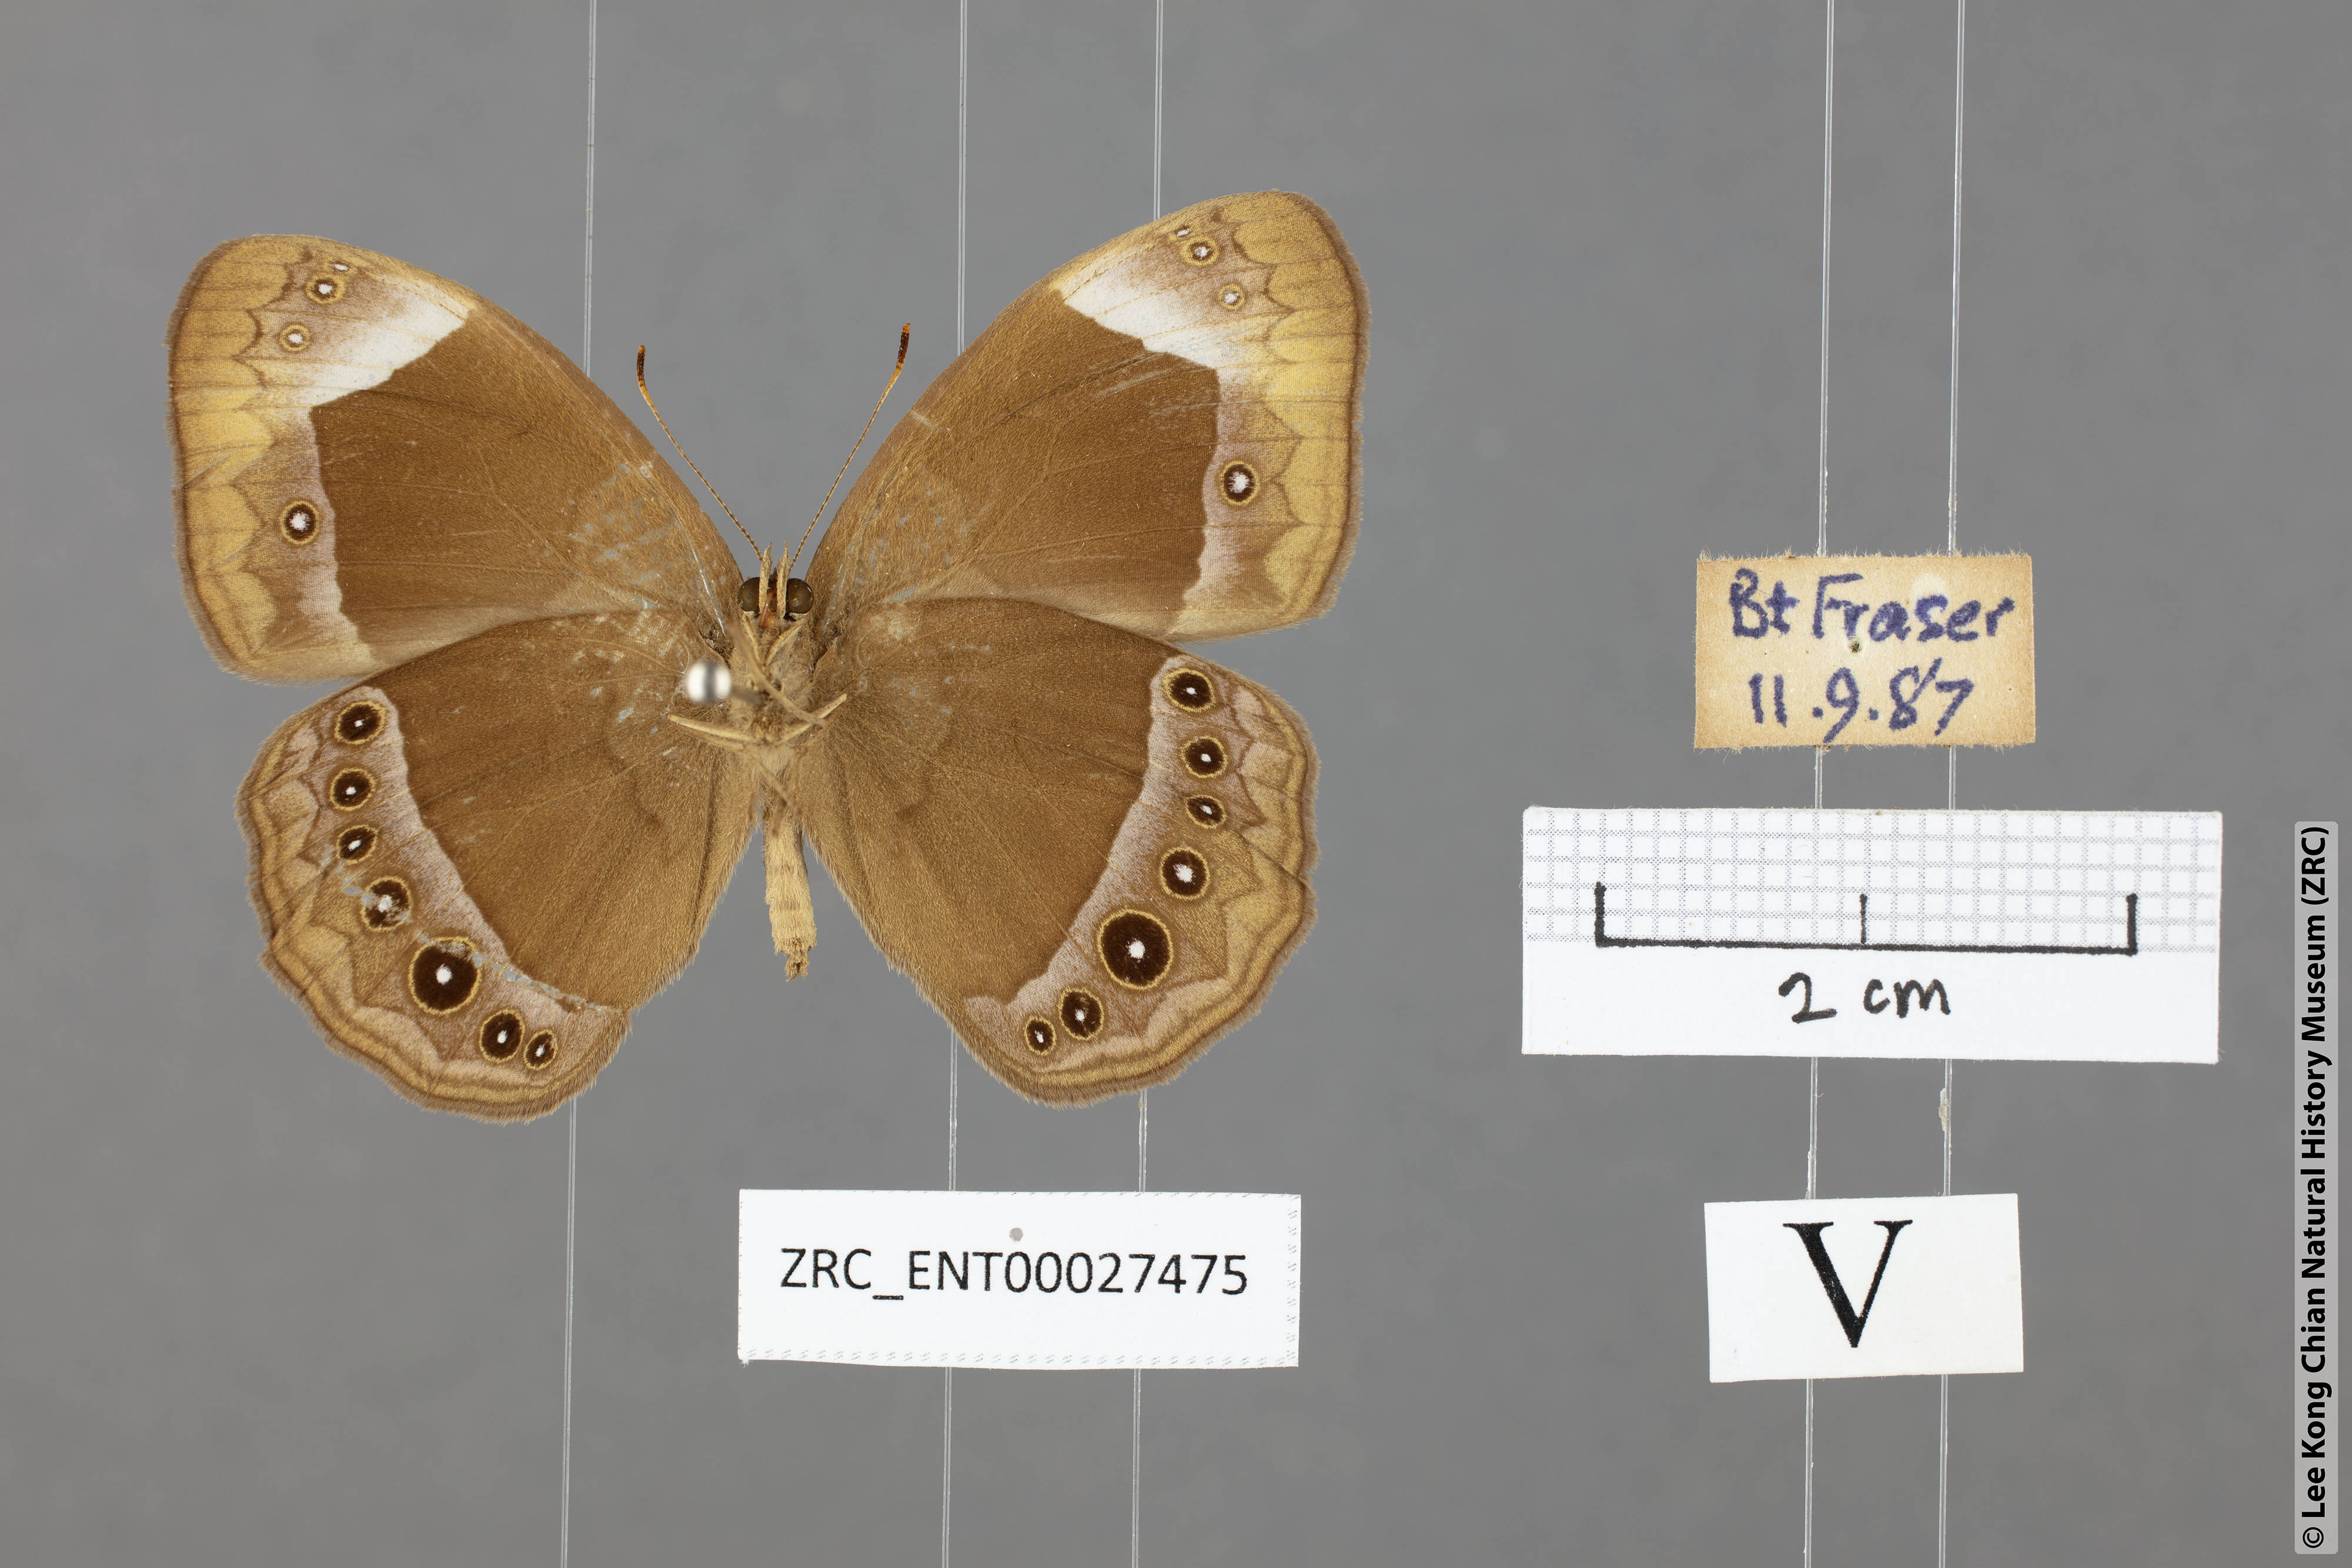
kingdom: Animalia
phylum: Arthropoda
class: Insecta
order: Lepidoptera
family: Nymphalidae
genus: Mycalesis
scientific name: Mycalesis anaxias
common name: White-bar bushbrown
